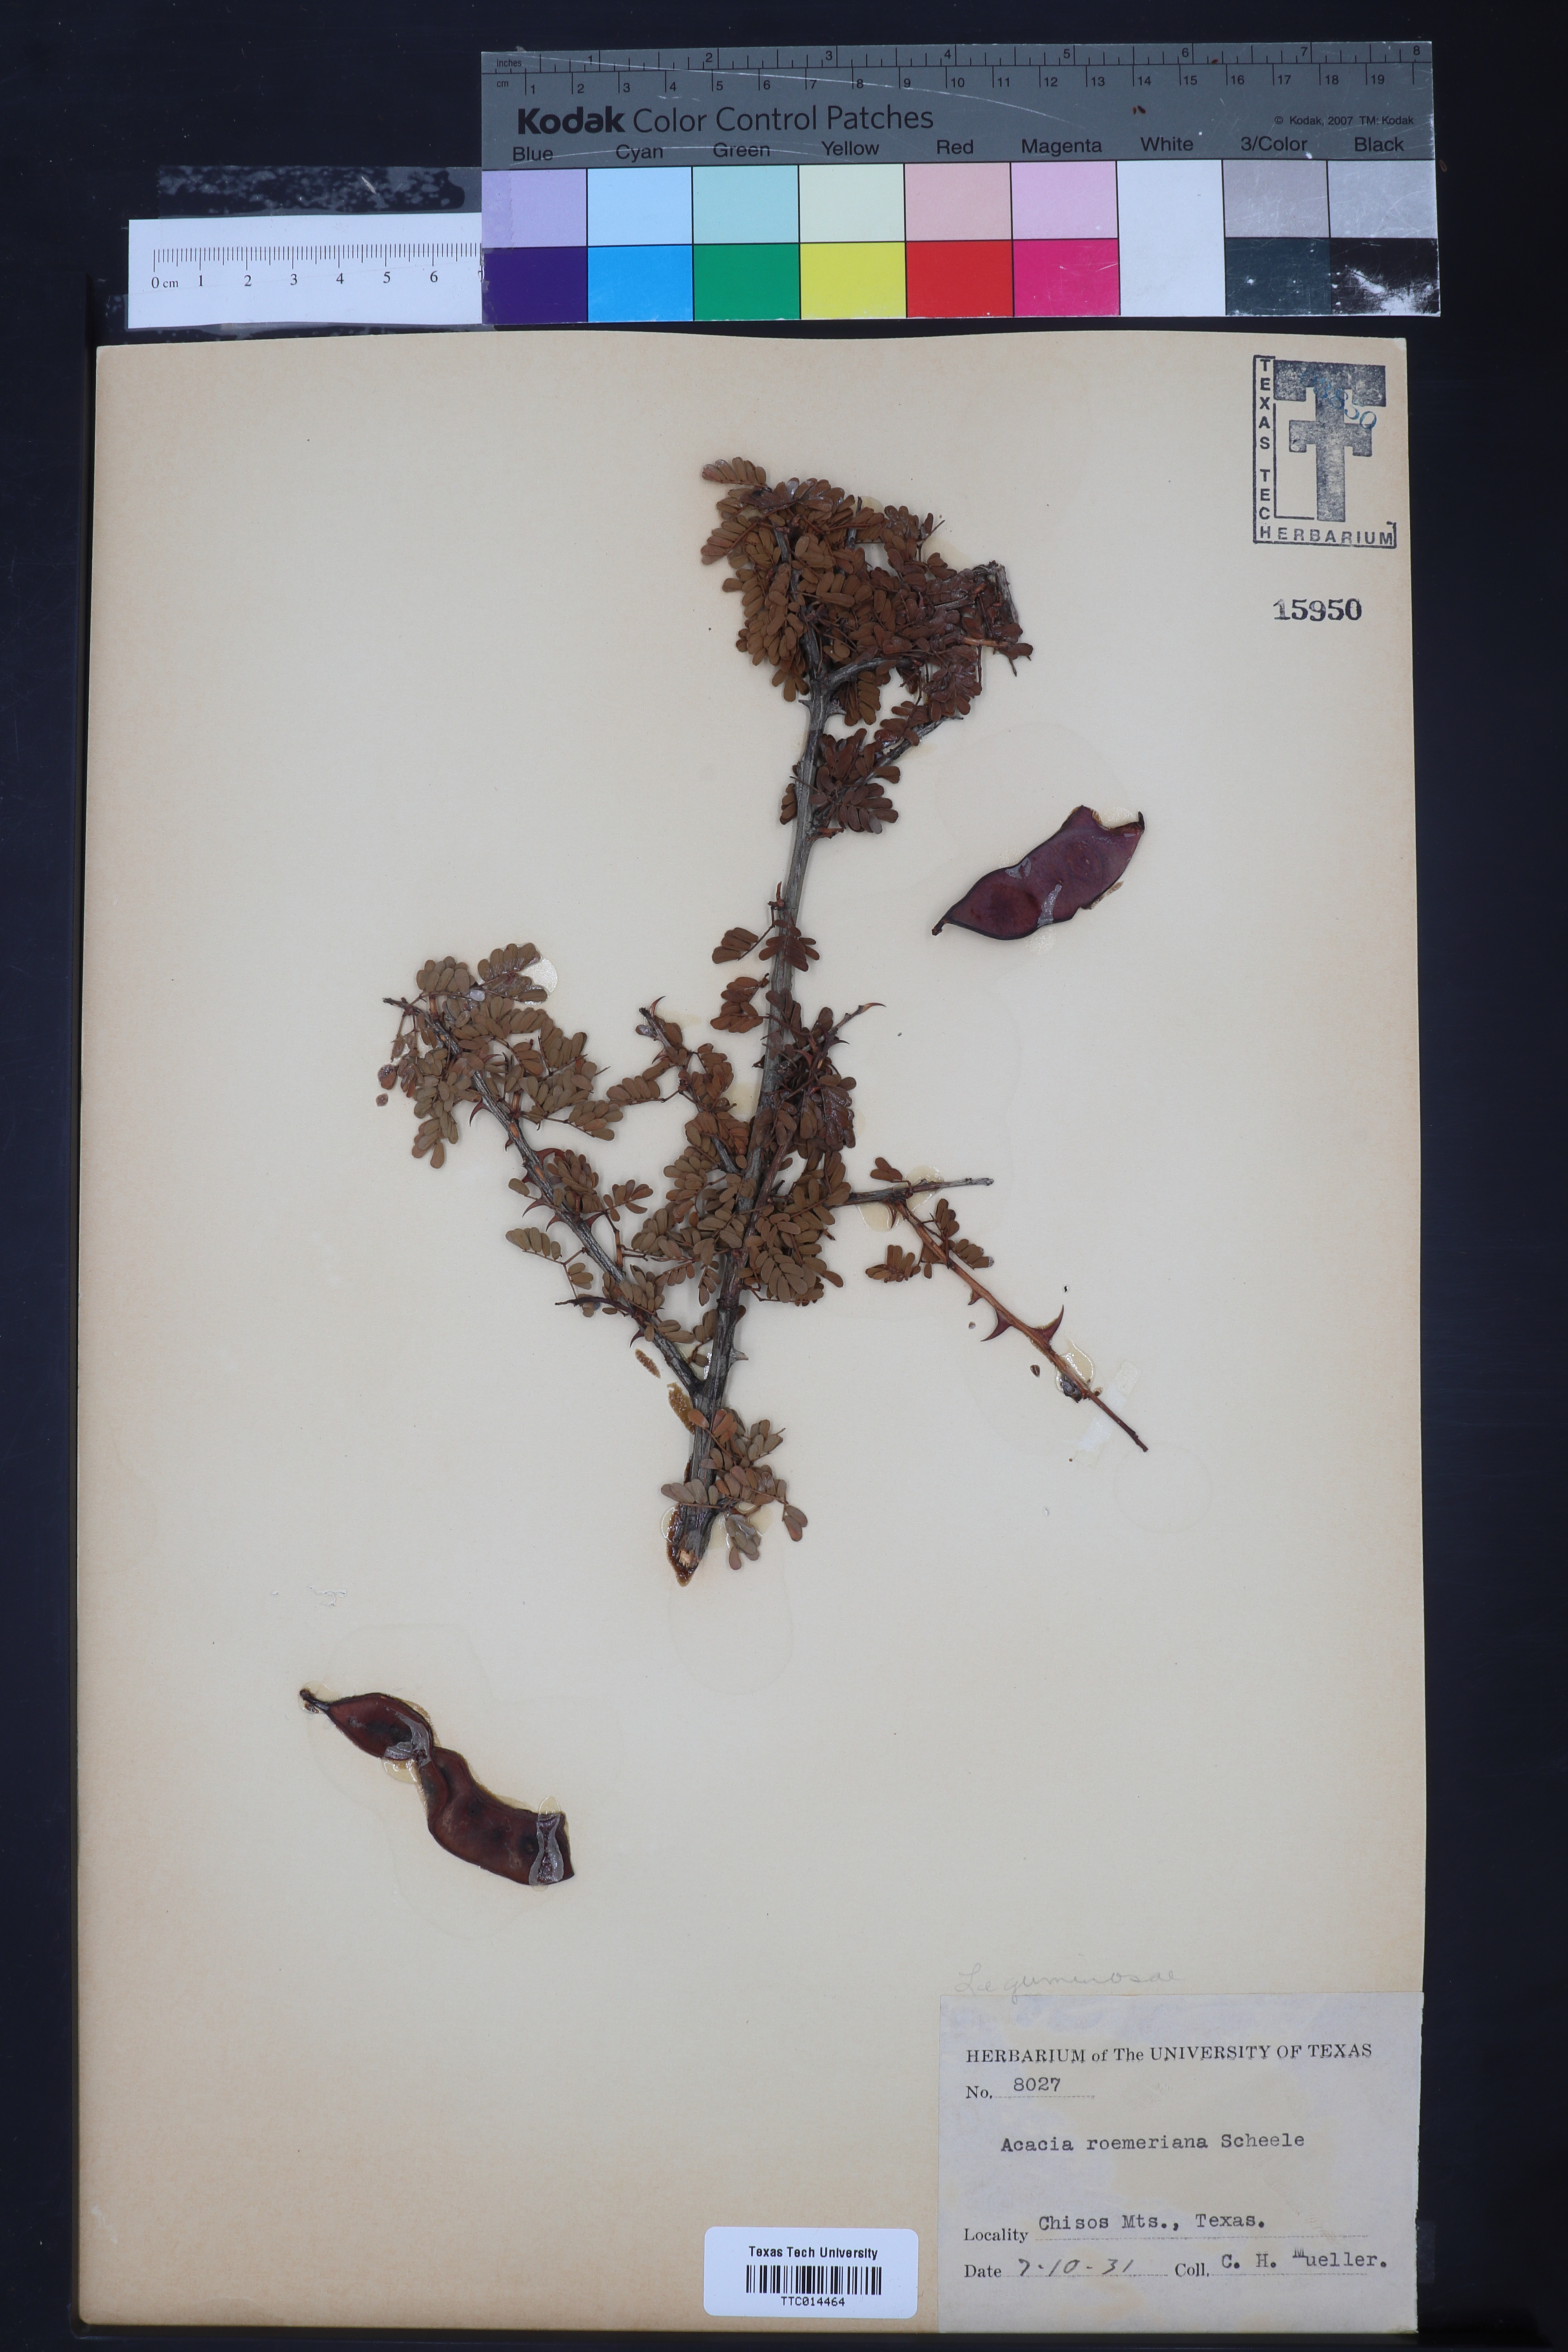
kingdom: Plantae
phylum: Tracheophyta
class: Magnoliopsida
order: Fabales
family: Fabaceae
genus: Senegalia
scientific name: Senegalia roemeriana
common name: Roemer's acacia
